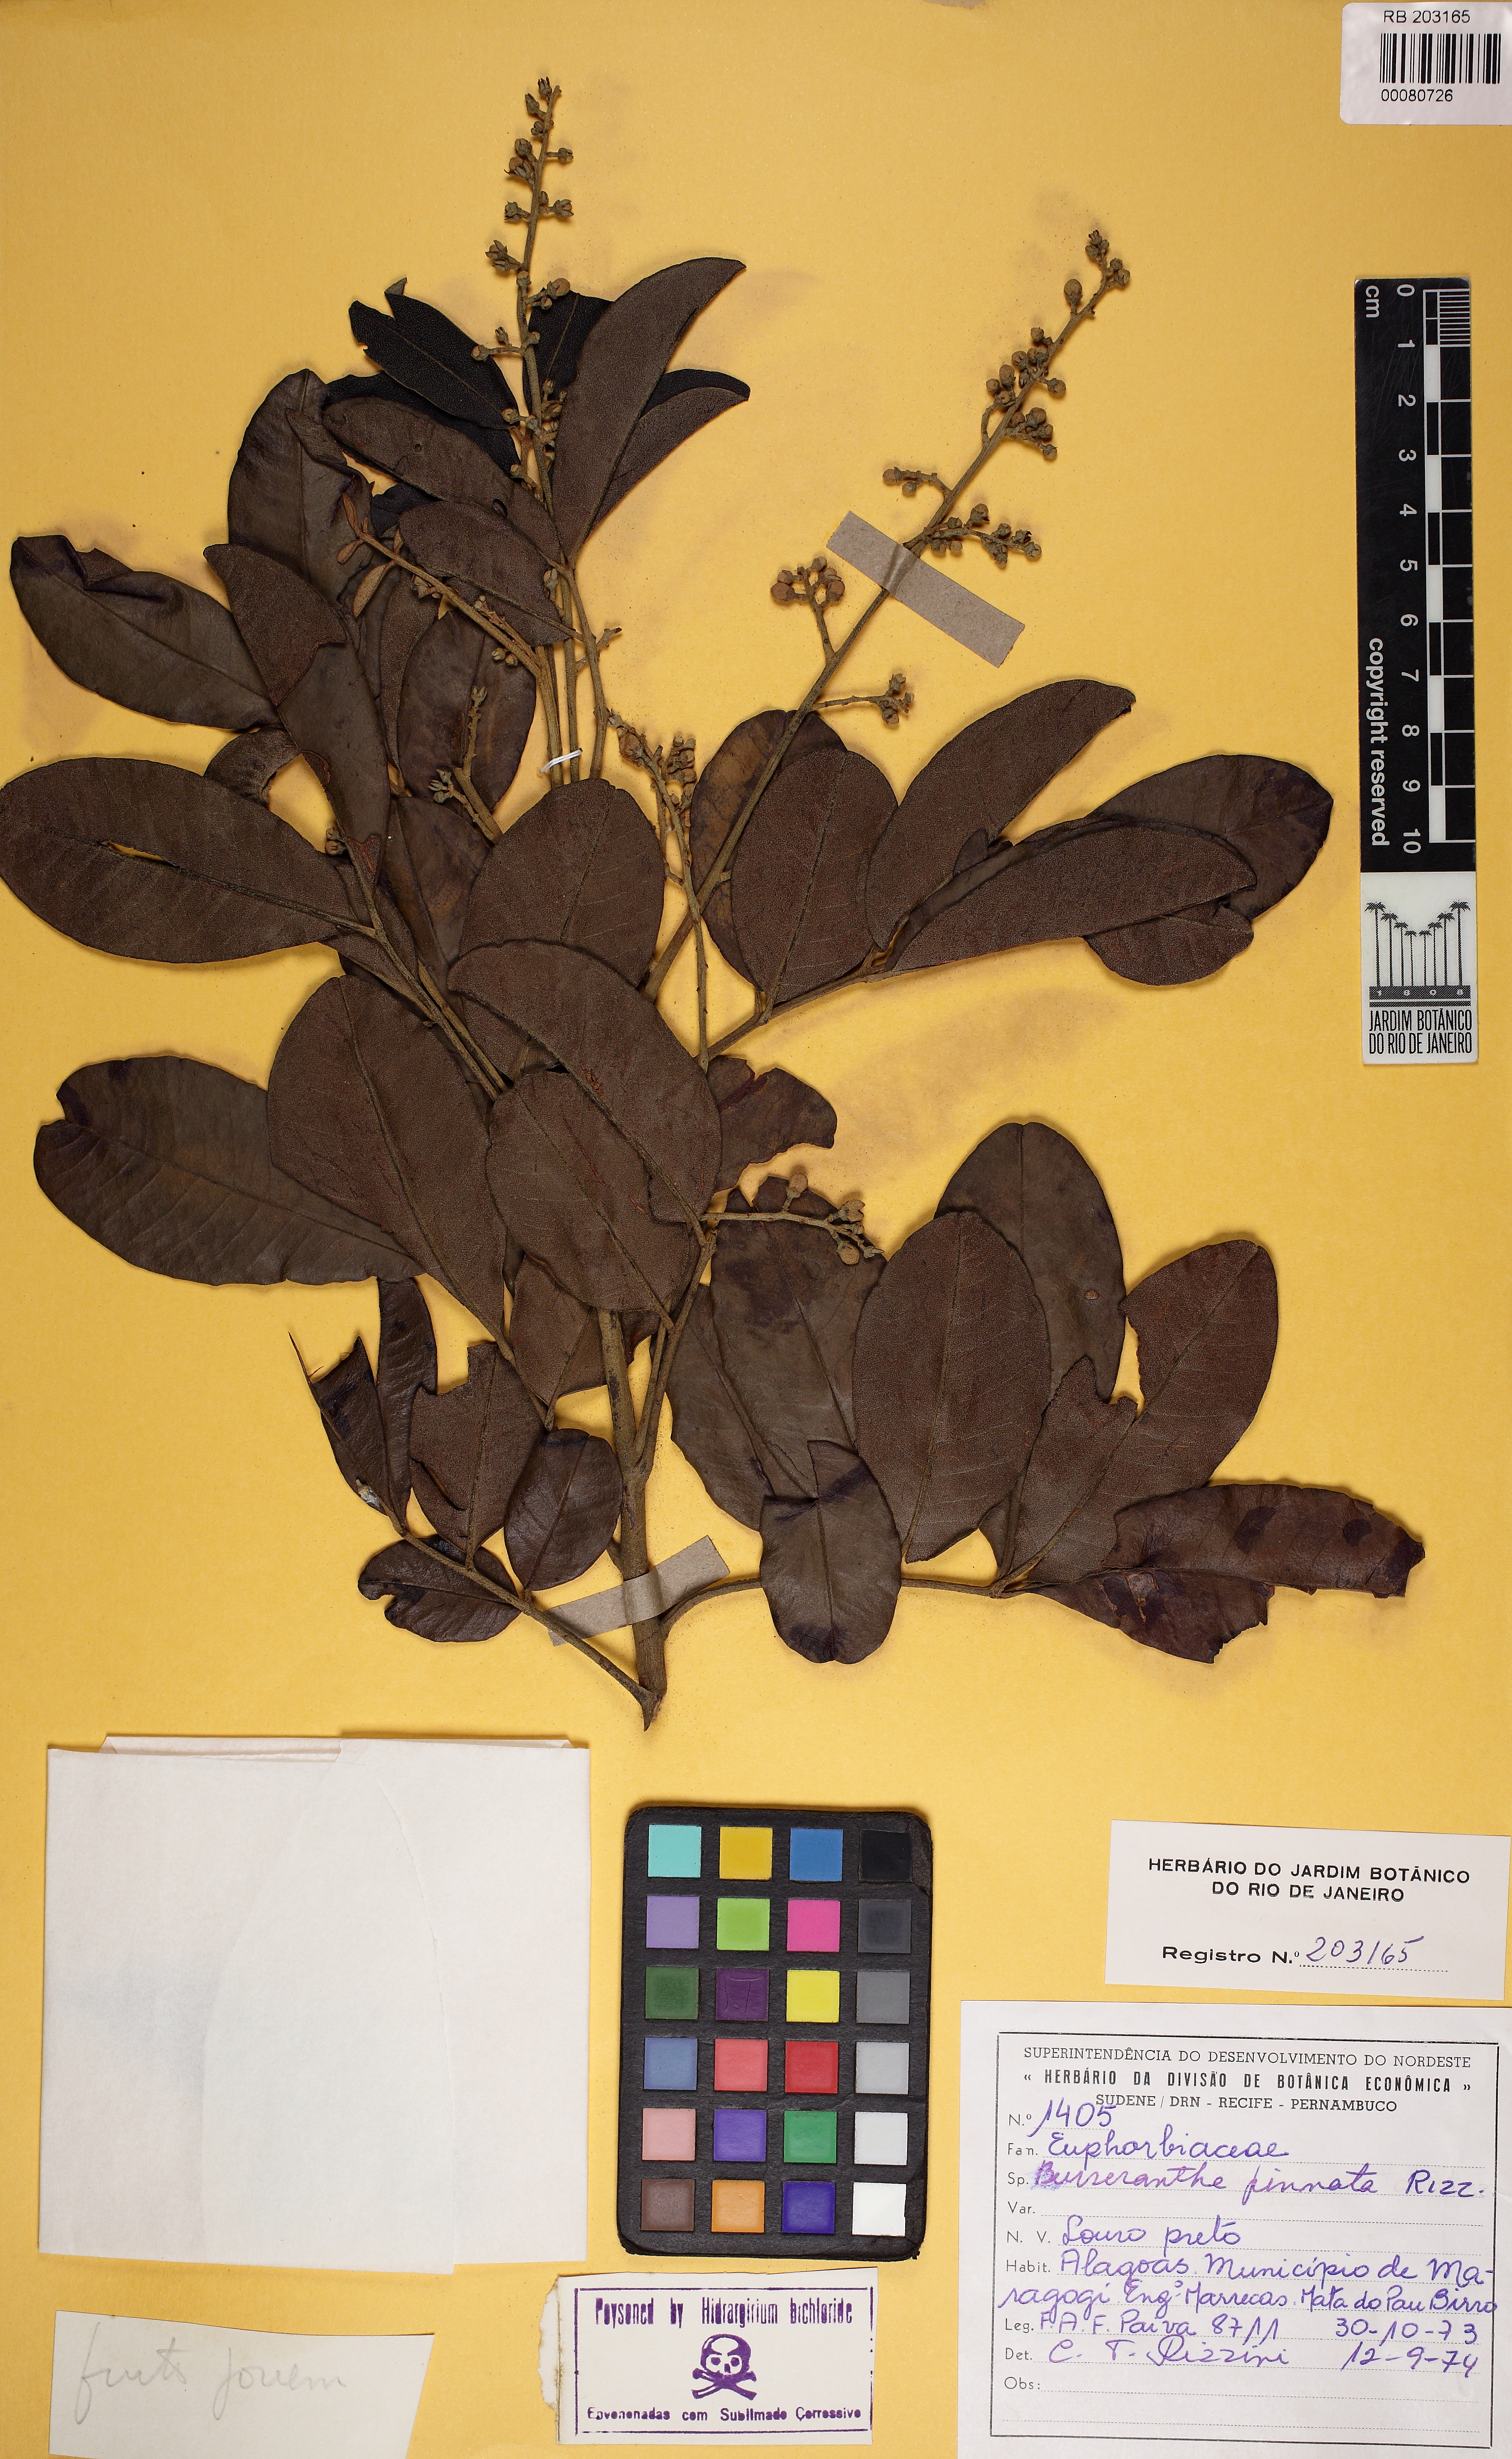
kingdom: Plantae
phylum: Tracheophyta
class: Magnoliopsida
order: Sapindales
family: Meliaceae
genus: Trichilia
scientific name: Trichilia lepidota
